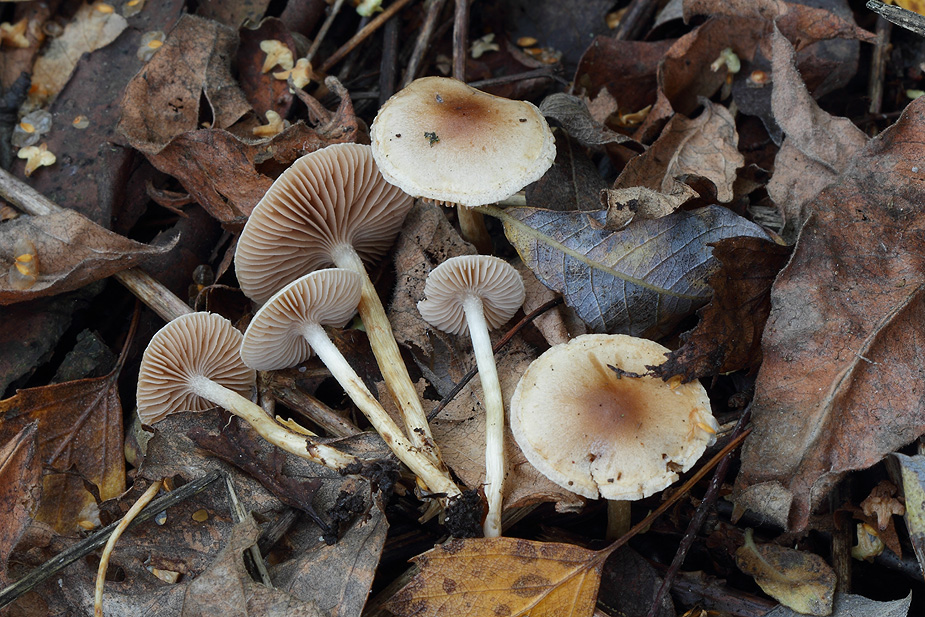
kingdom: Fungi
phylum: Basidiomycota
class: Agaricomycetes
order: Agaricales
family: Hymenogastraceae
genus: Hebeloma
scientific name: Hebeloma mesophaeum
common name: lerbrun tåreblad
